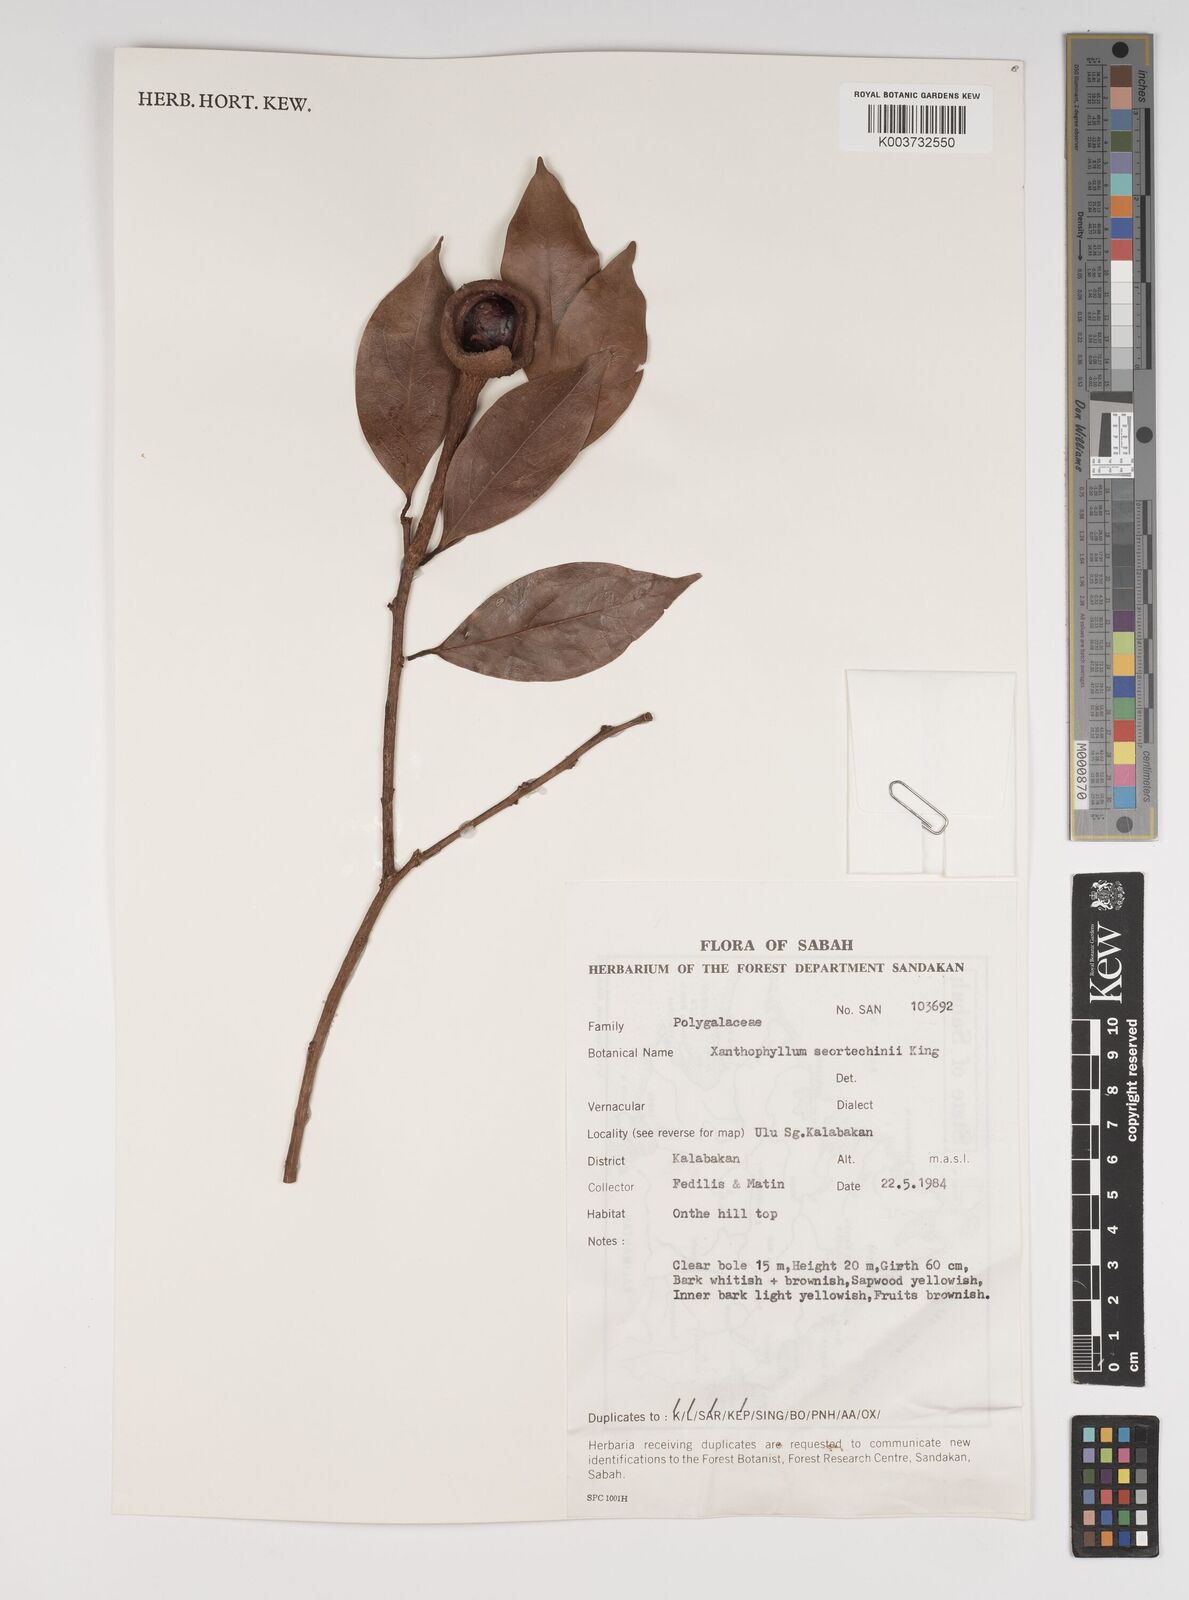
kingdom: Plantae
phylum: Tracheophyta
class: Magnoliopsida
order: Fabales
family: Polygalaceae
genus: Xanthophyllum
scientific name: Xanthophyllum obscurum
